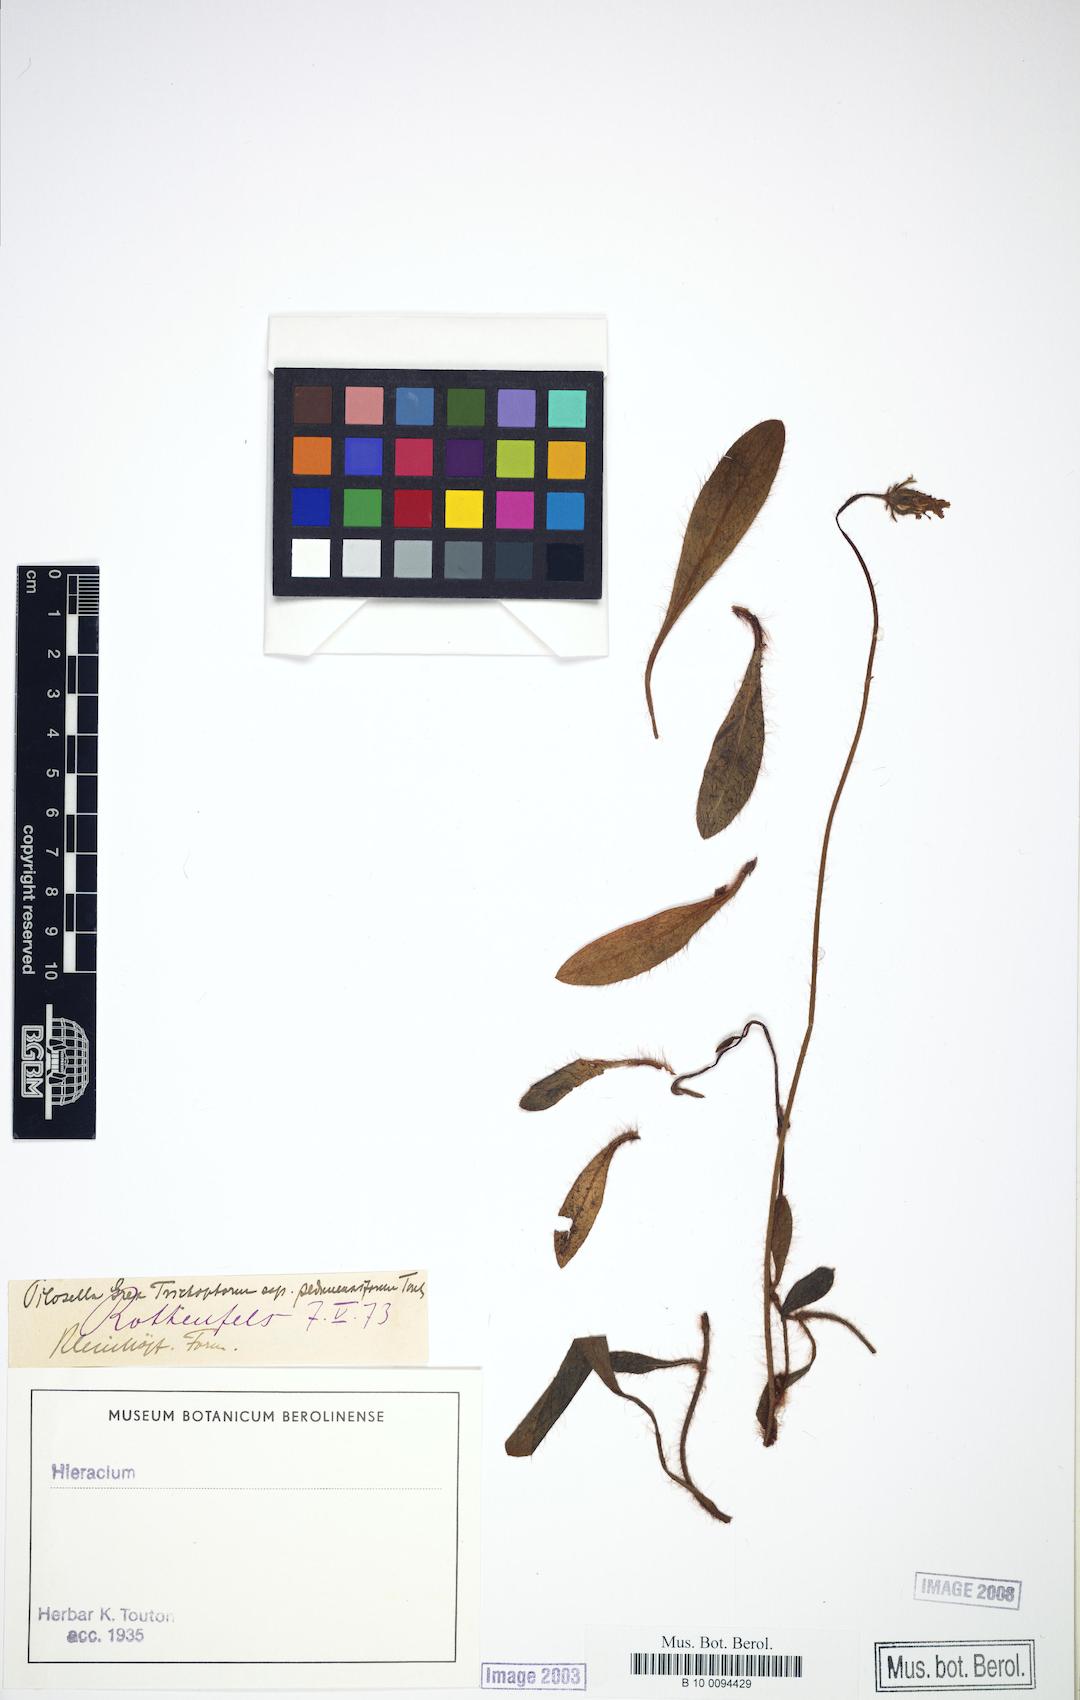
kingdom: Plantae
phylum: Tracheophyta
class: Magnoliopsida
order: Asterales
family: Asteraceae
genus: Pilosella
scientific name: Pilosella officinarum
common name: Mouse-ear hawkweed
